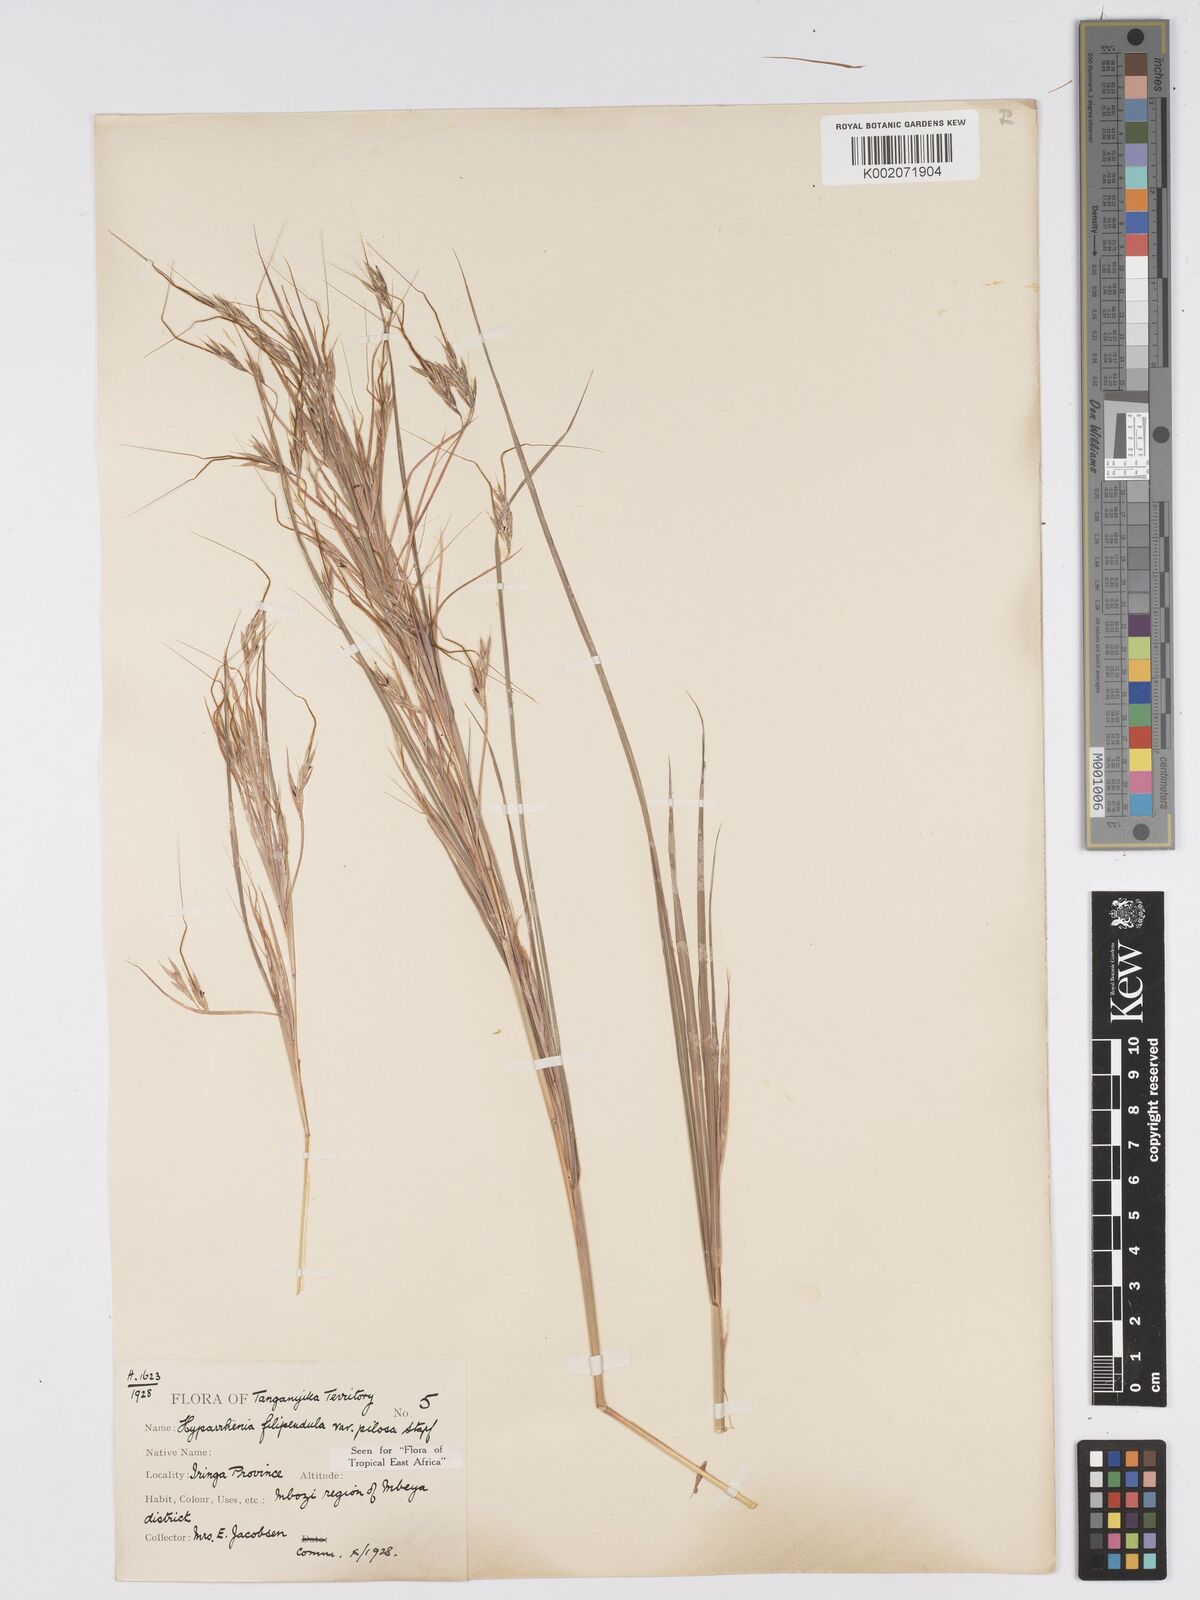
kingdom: Plantae
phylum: Tracheophyta
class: Liliopsida
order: Poales
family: Poaceae
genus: Hyparrhenia
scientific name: Hyparrhenia filipendula
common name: Tambookie grass
